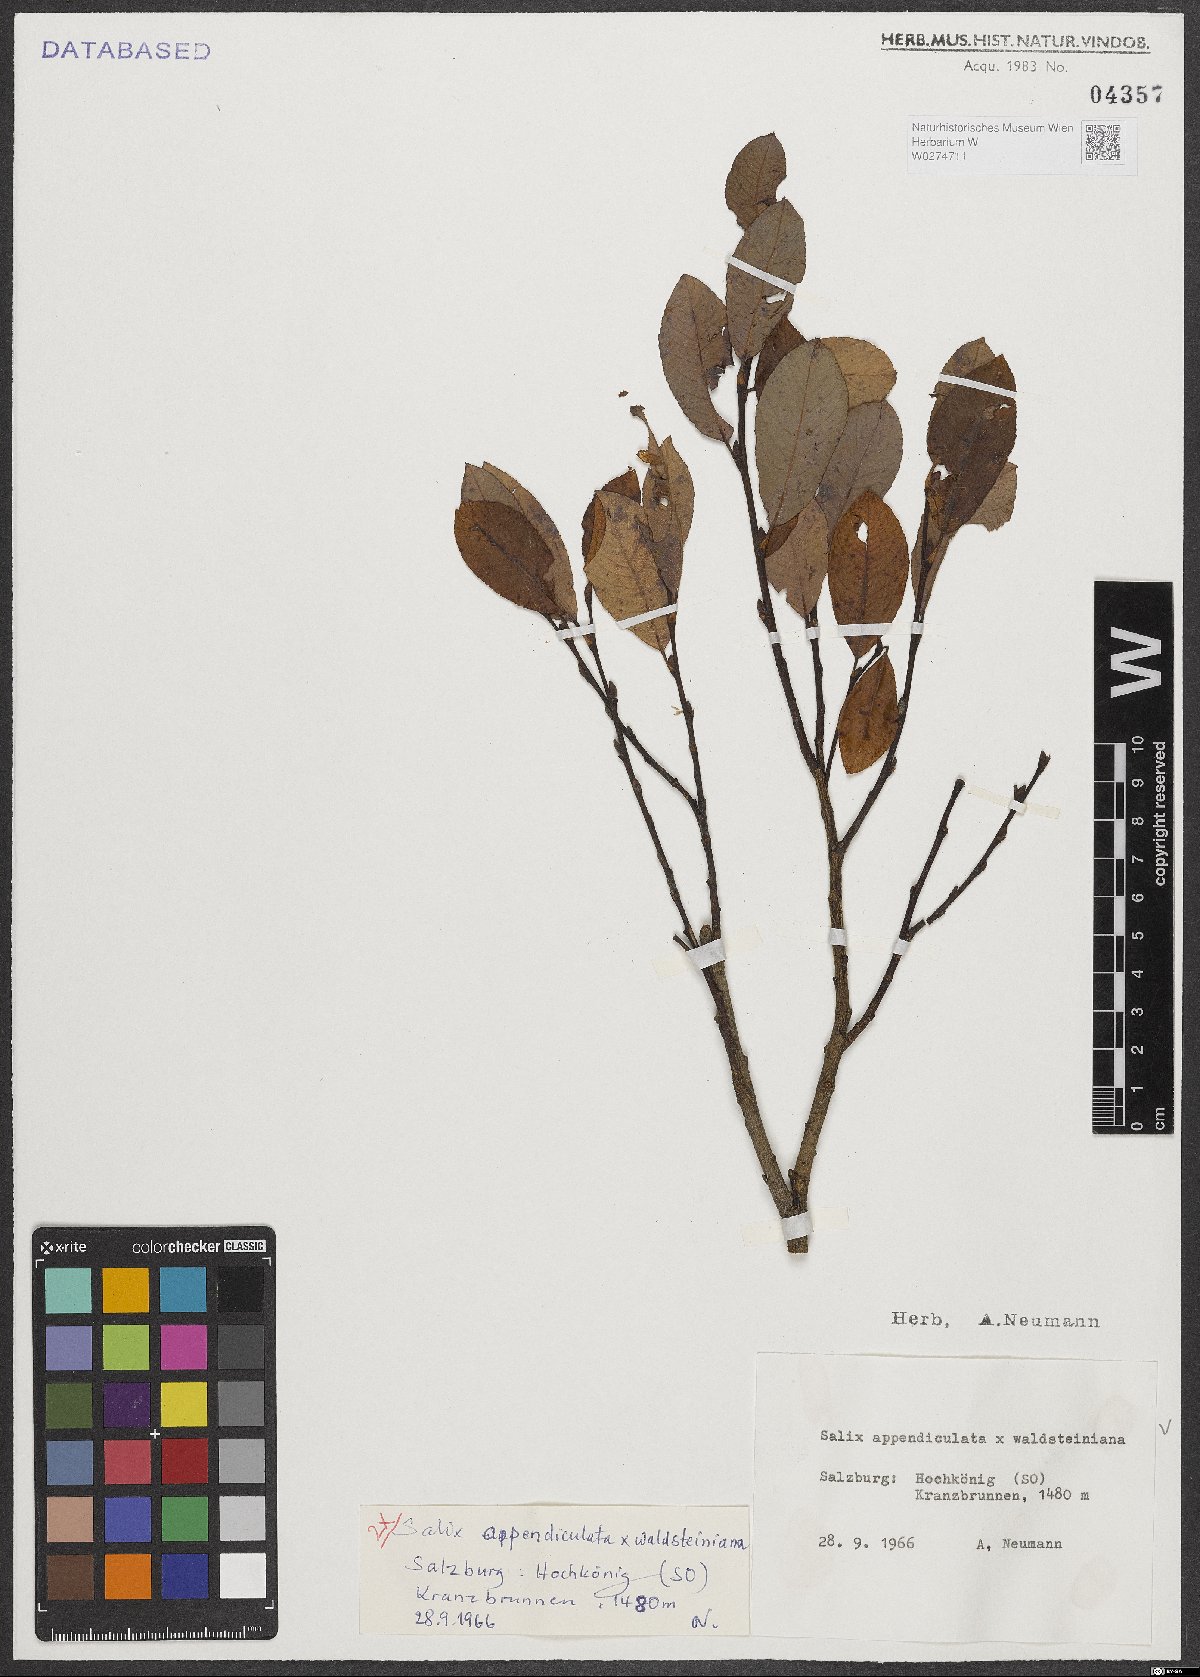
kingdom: Plantae
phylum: Tracheophyta
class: Magnoliopsida
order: Malpighiales
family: Salicaceae
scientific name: Salicaceae
